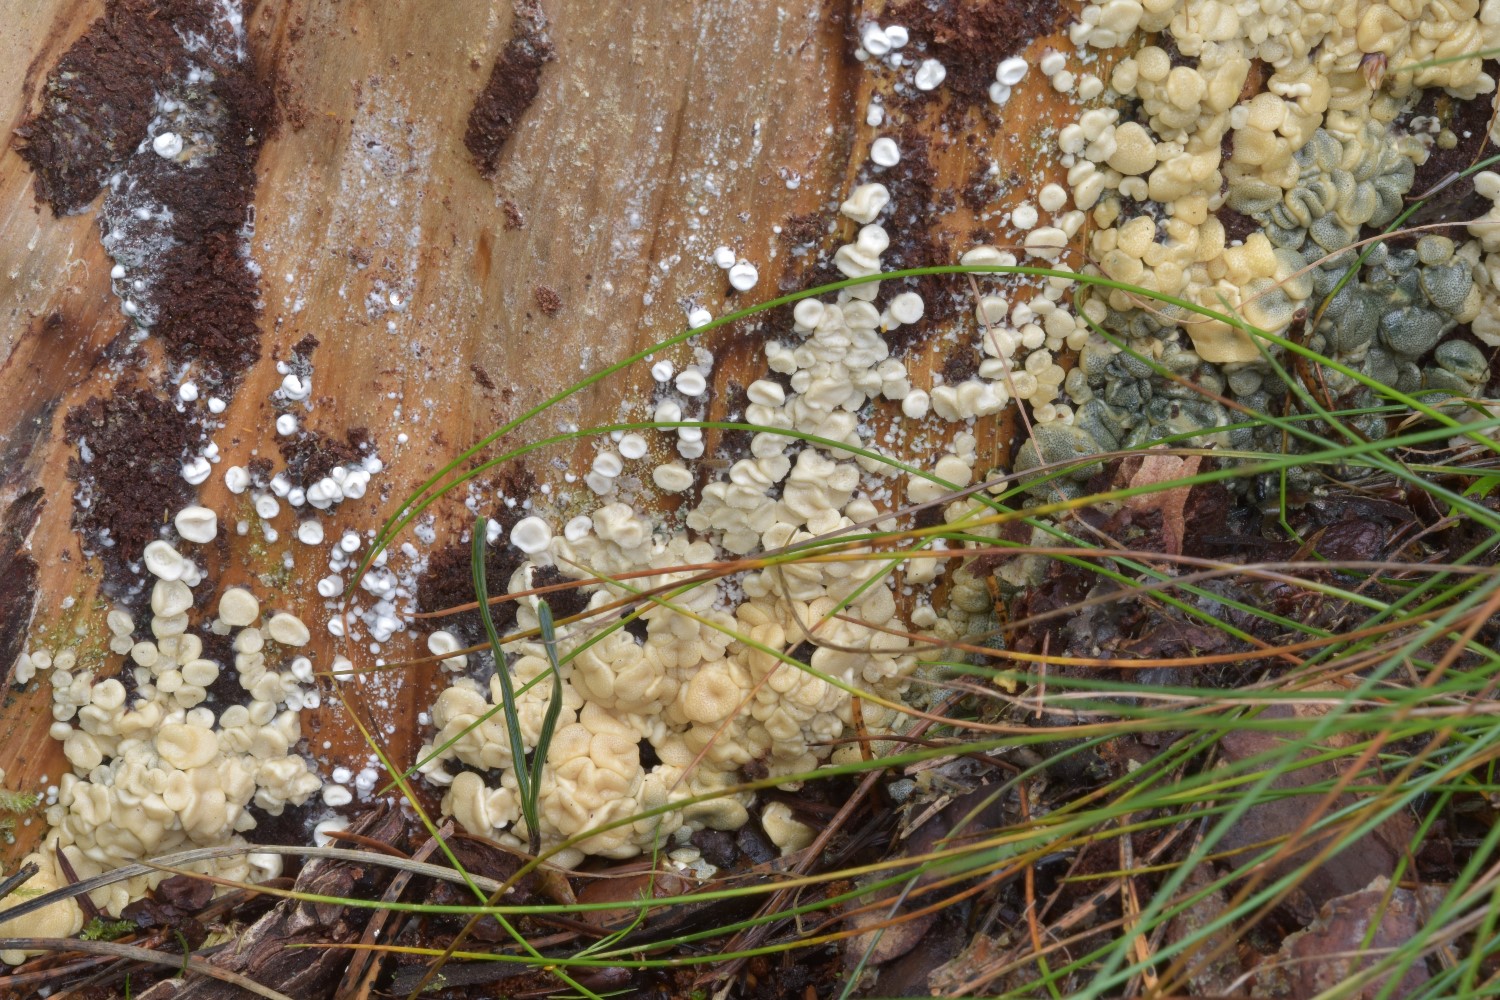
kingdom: Fungi
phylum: Ascomycota
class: Sordariomycetes
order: Hypocreales
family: Hypocreaceae
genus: Trichoderma
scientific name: Trichoderma dacrymycellum
